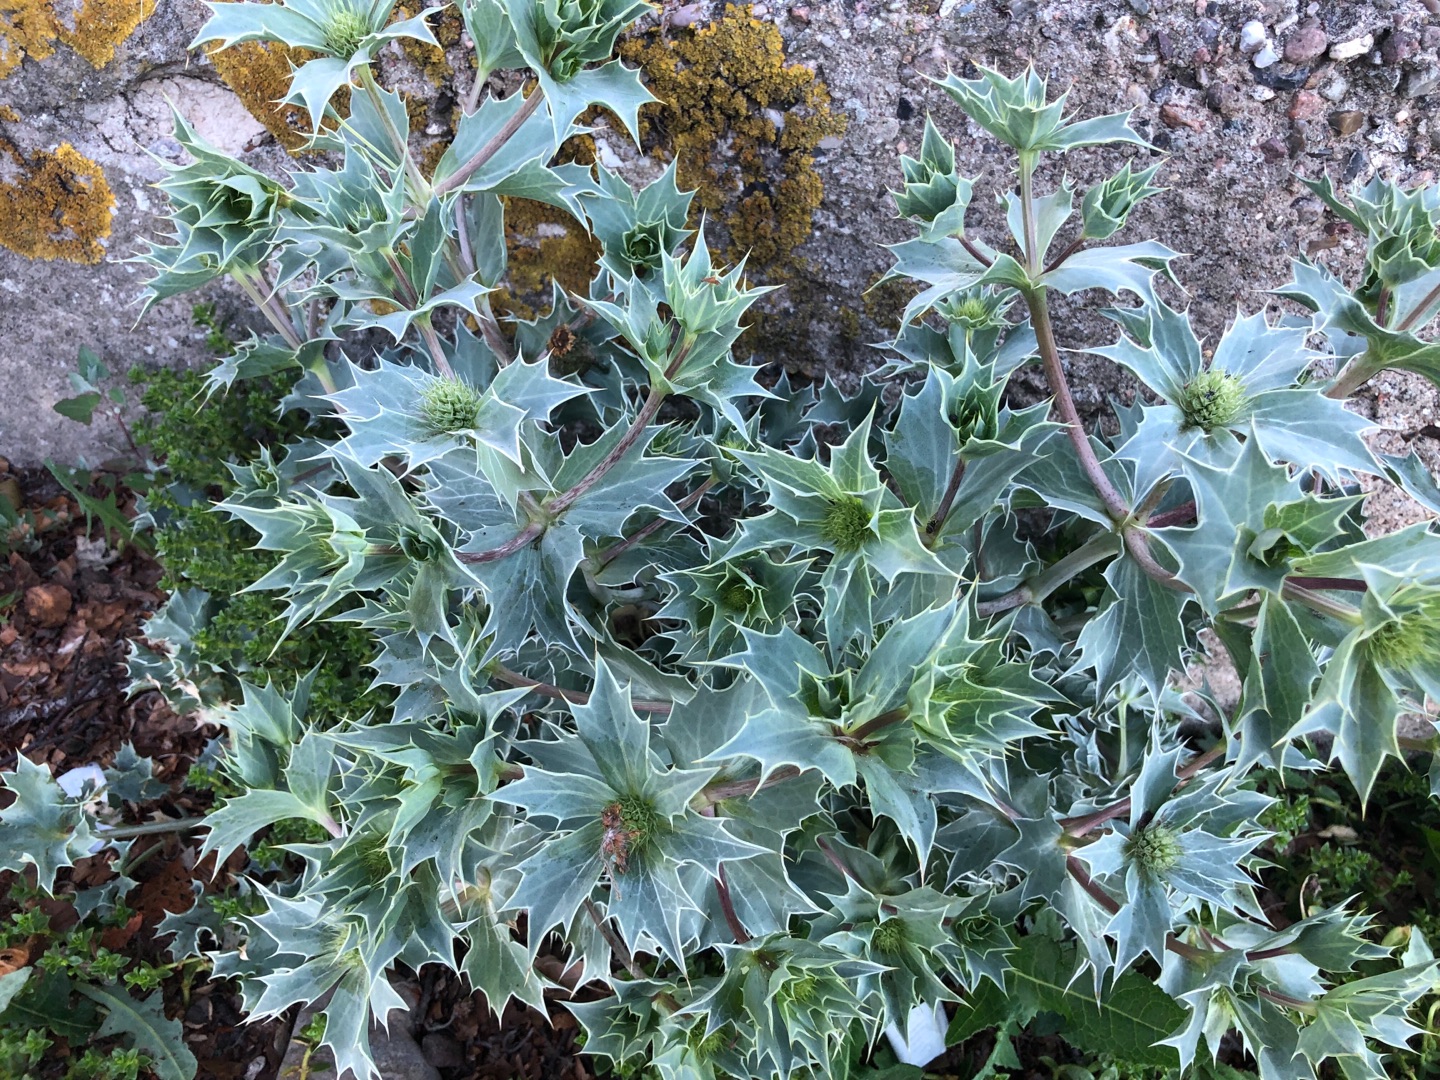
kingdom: Plantae
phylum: Tracheophyta
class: Magnoliopsida
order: Apiales
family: Apiaceae
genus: Eryngium
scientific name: Eryngium maritimum
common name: Strand-mandstro
